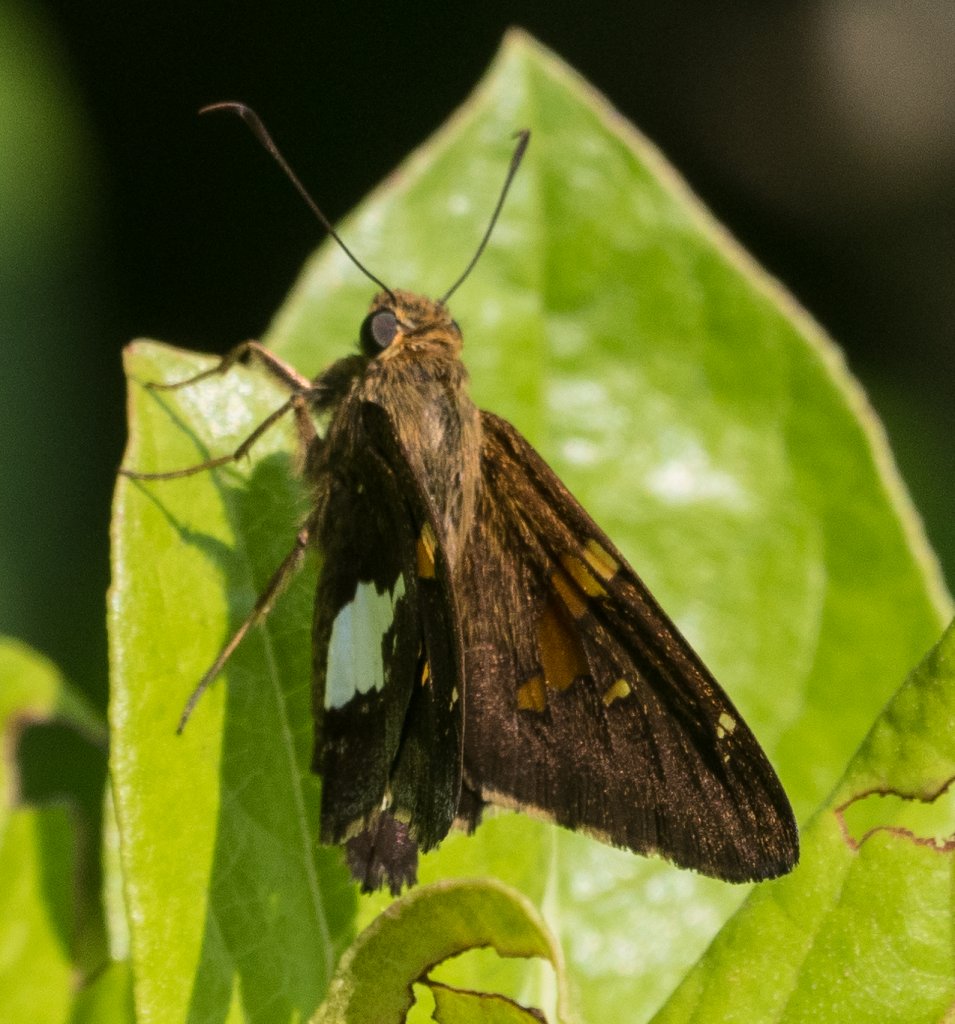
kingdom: Animalia
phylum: Arthropoda
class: Insecta
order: Lepidoptera
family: Hesperiidae
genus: Epargyreus
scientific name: Epargyreus clarus
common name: Silver-spotted Skipper
